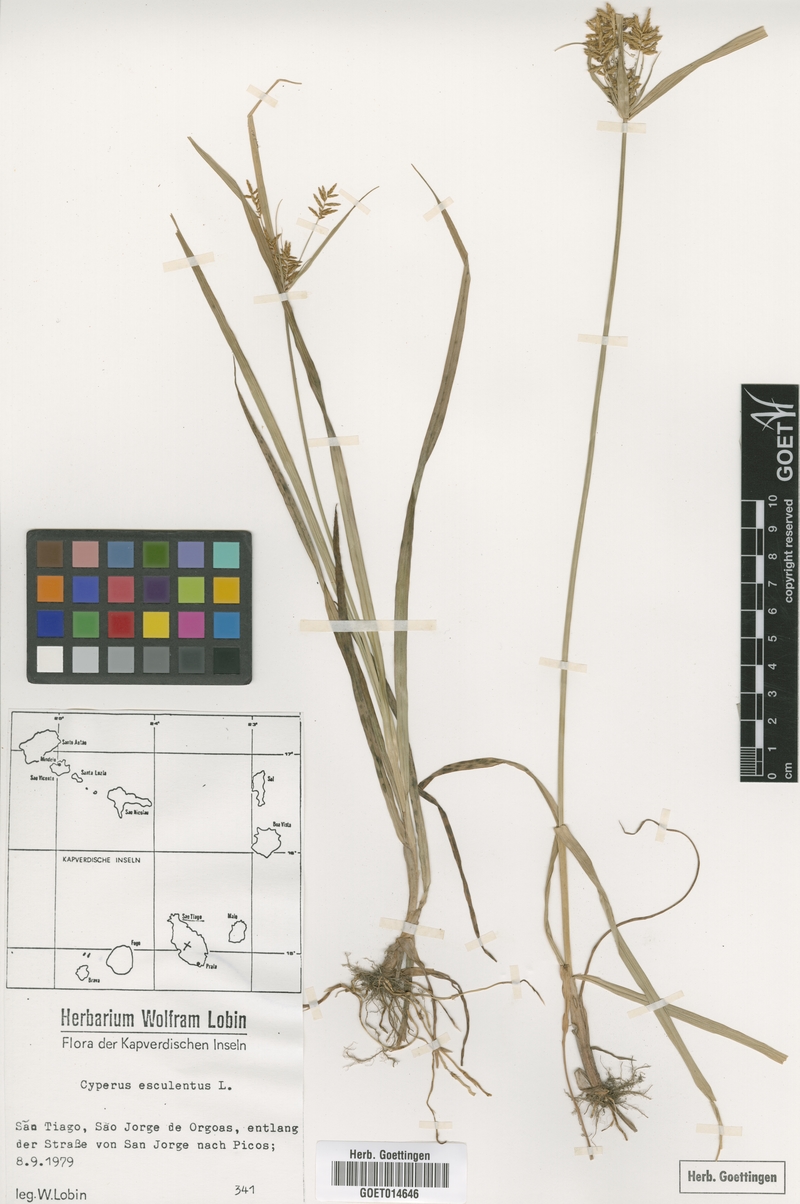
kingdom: Plantae
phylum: Tracheophyta
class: Liliopsida
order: Poales
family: Cyperaceae
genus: Cyperus
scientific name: Cyperus esculentus
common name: Yellow nutsedge
